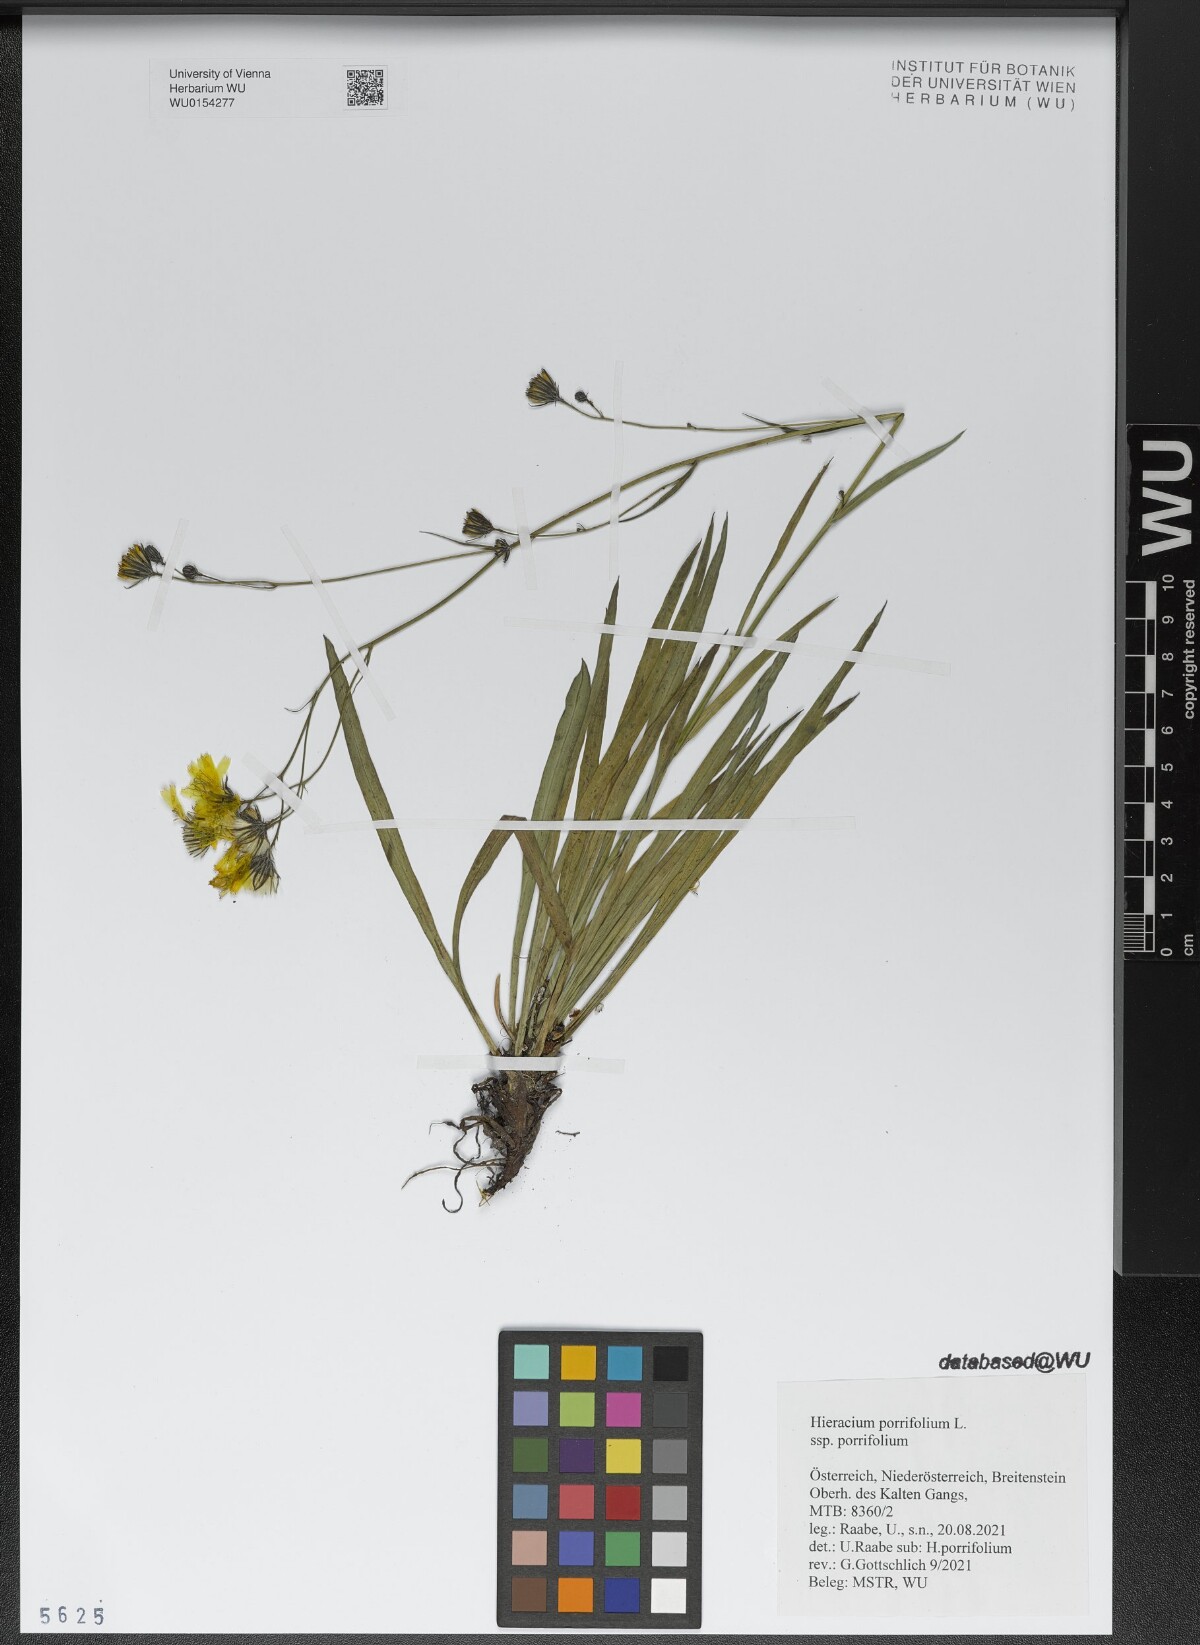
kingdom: Plantae
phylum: Tracheophyta
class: Magnoliopsida
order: Asterales
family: Asteraceae
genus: Hieracium
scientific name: Hieracium porrifolium
